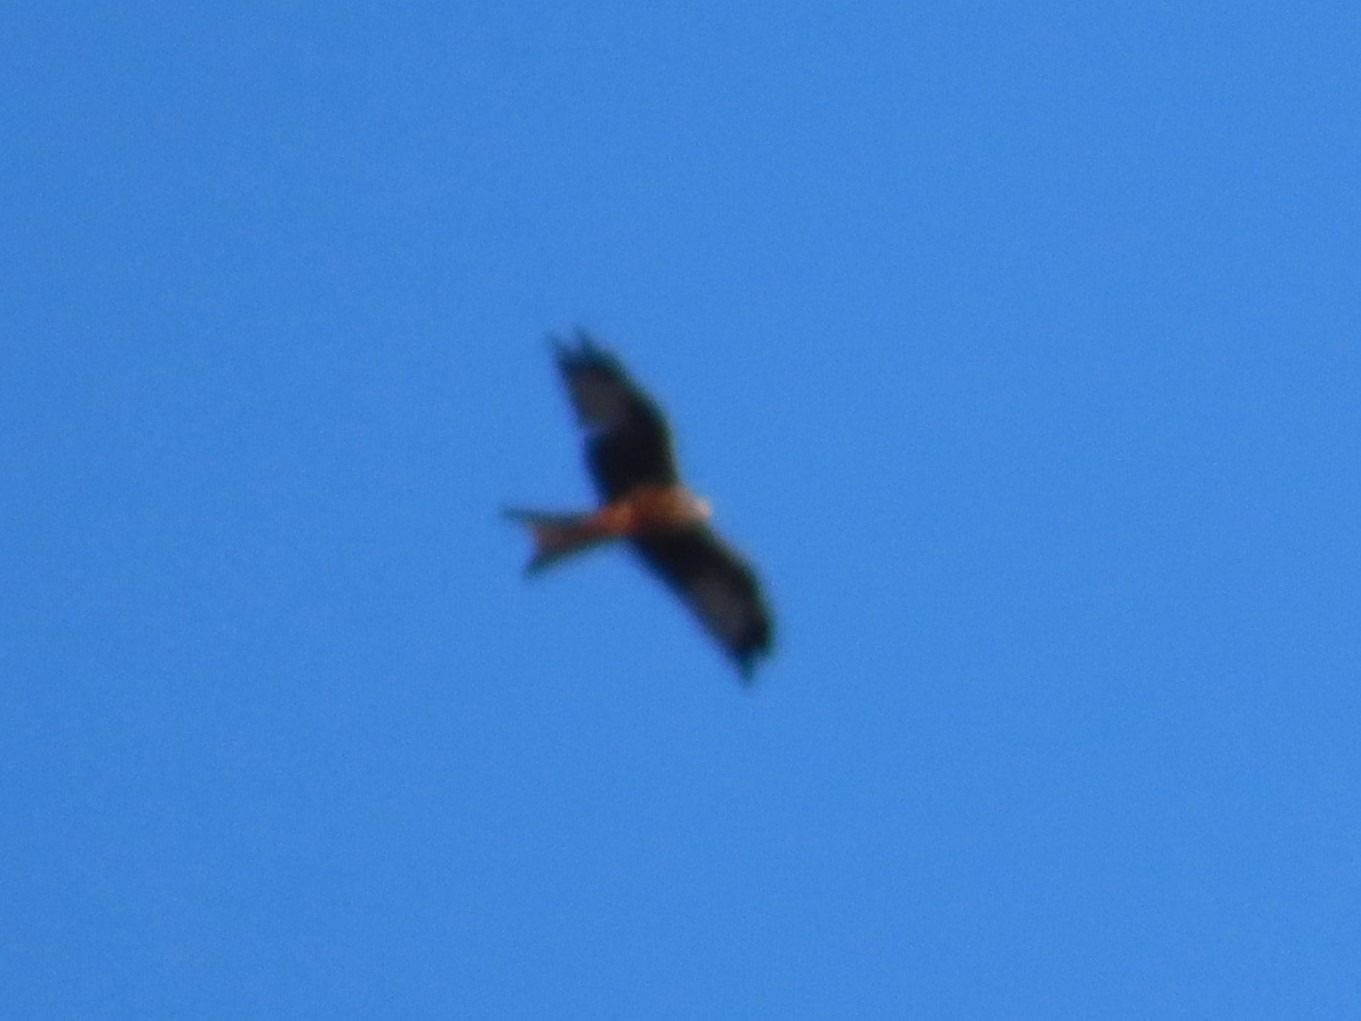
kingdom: Animalia
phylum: Chordata
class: Aves
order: Accipitriformes
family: Accipitridae
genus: Milvus
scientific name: Milvus milvus
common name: Rød glente
